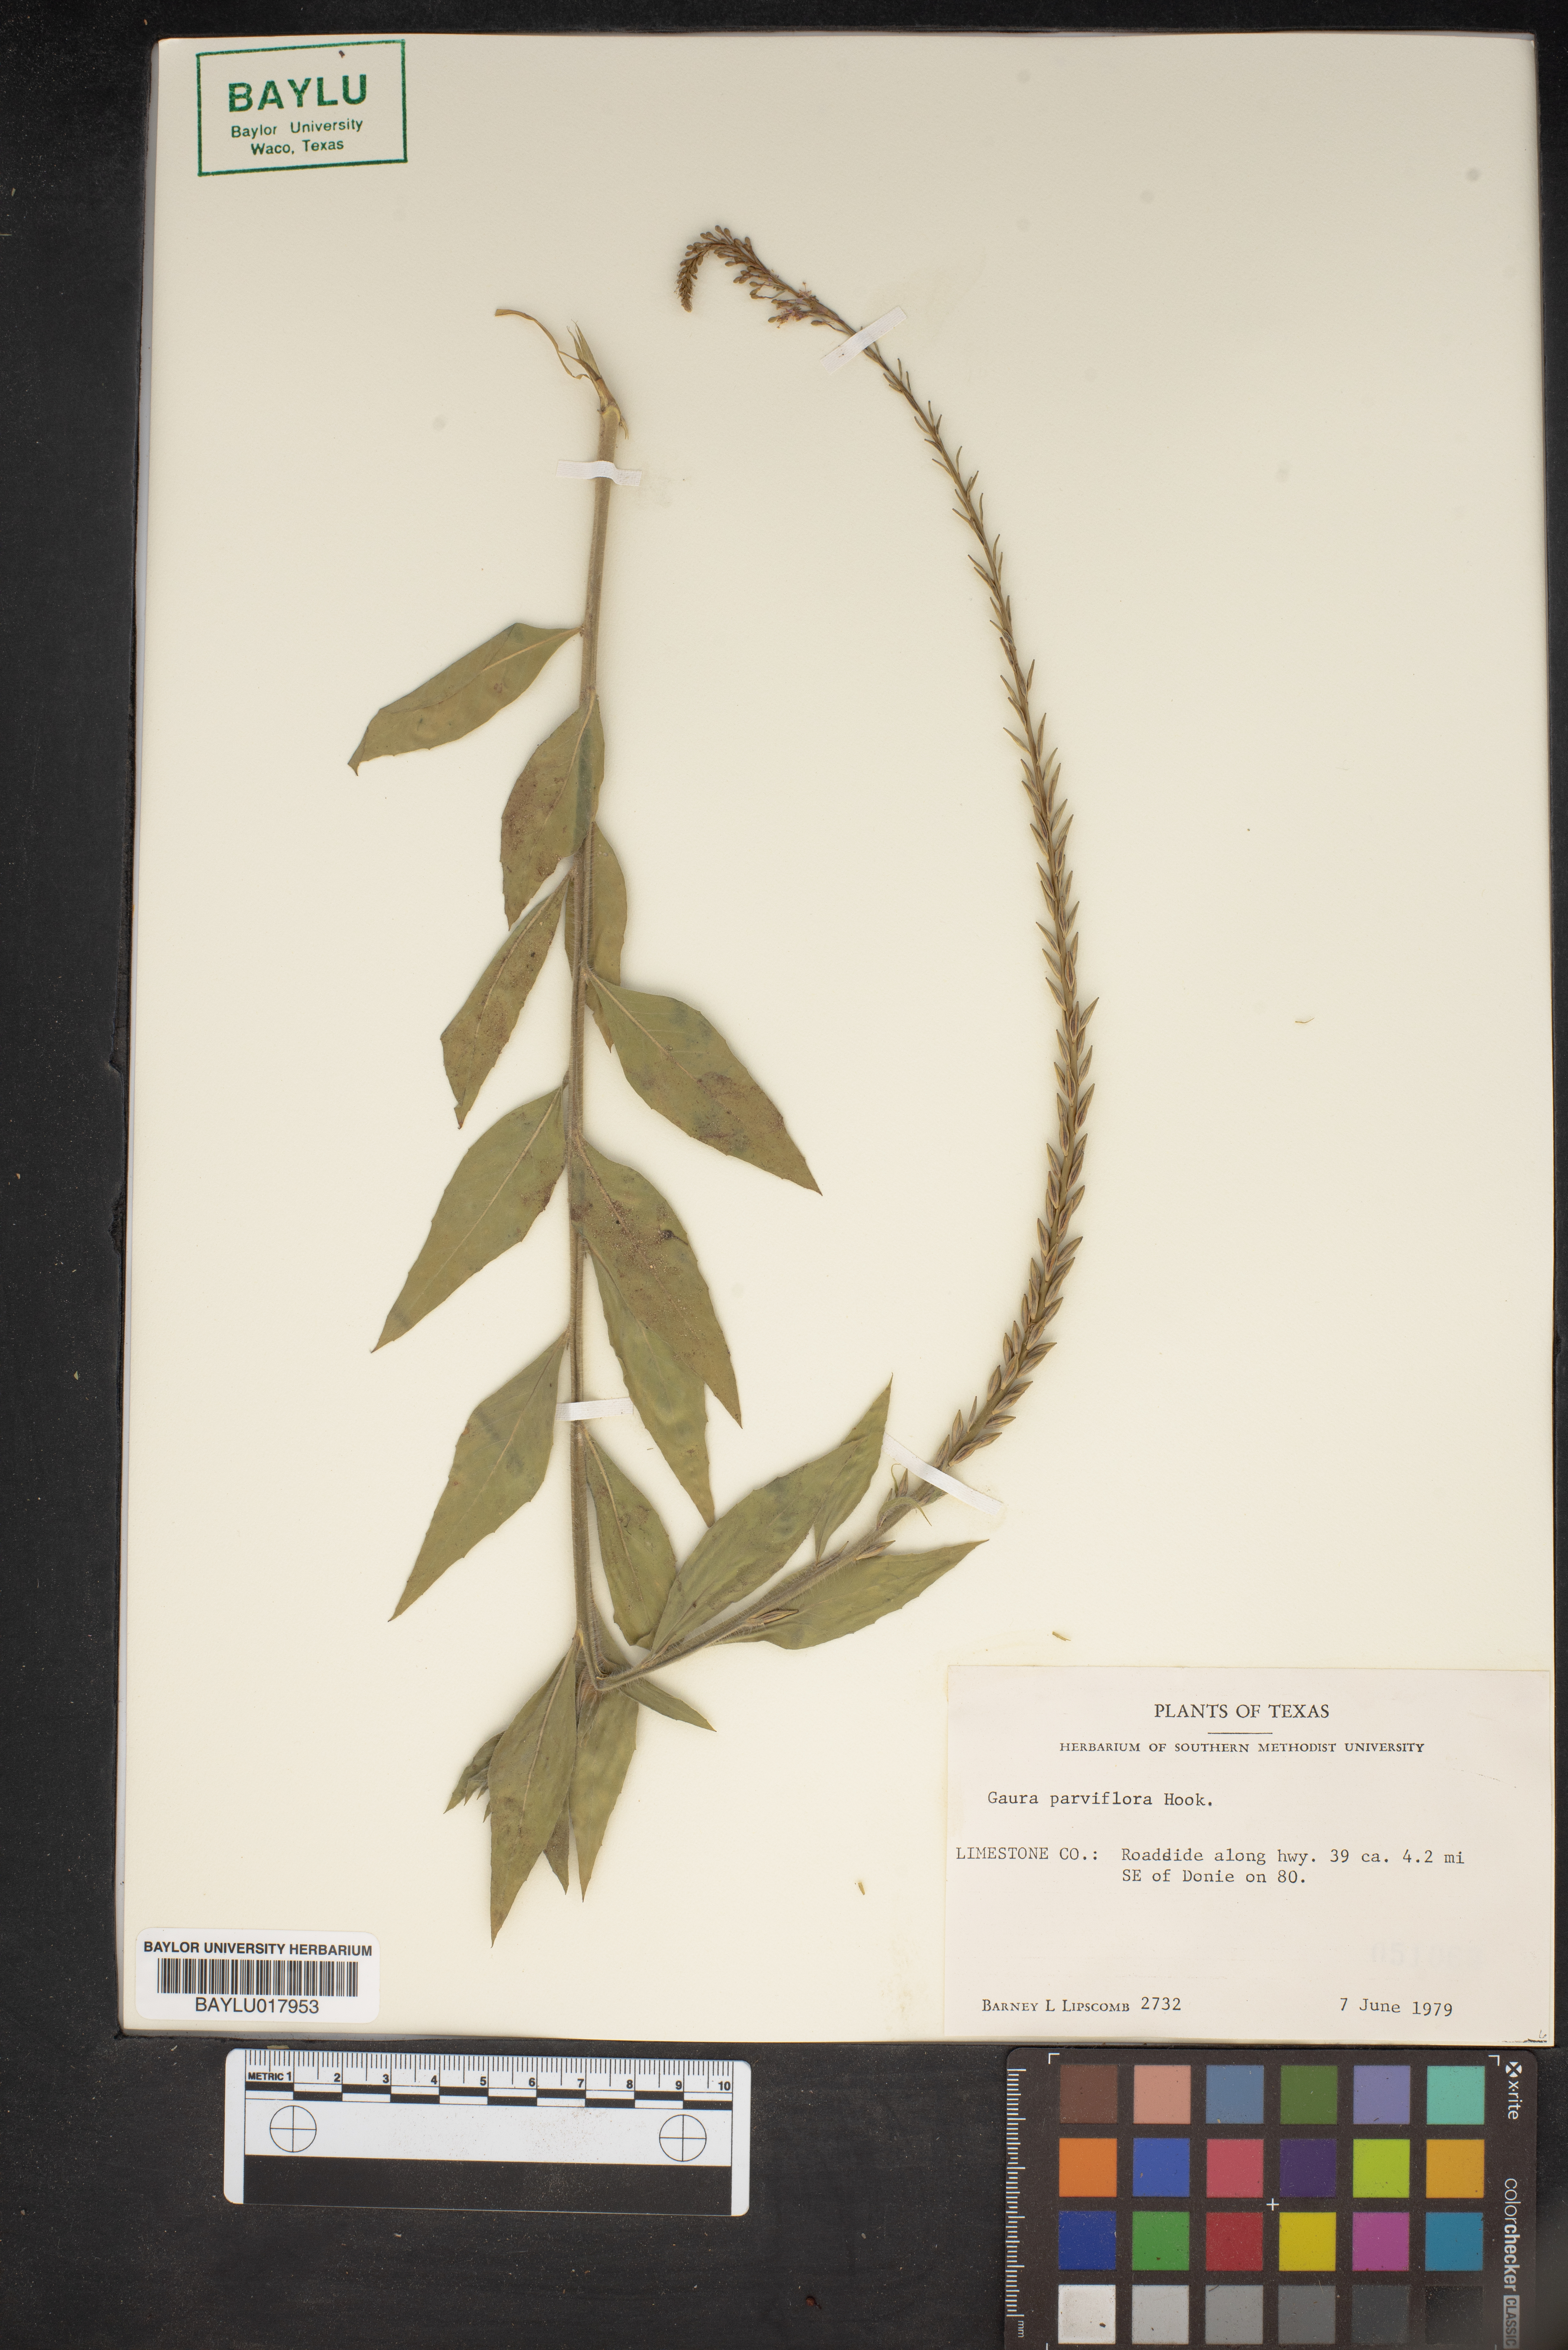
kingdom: Plantae
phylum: Tracheophyta
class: Magnoliopsida
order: Myrtales
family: Onagraceae
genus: Oenothera
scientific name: Oenothera curtiflora
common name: Velvetweed
